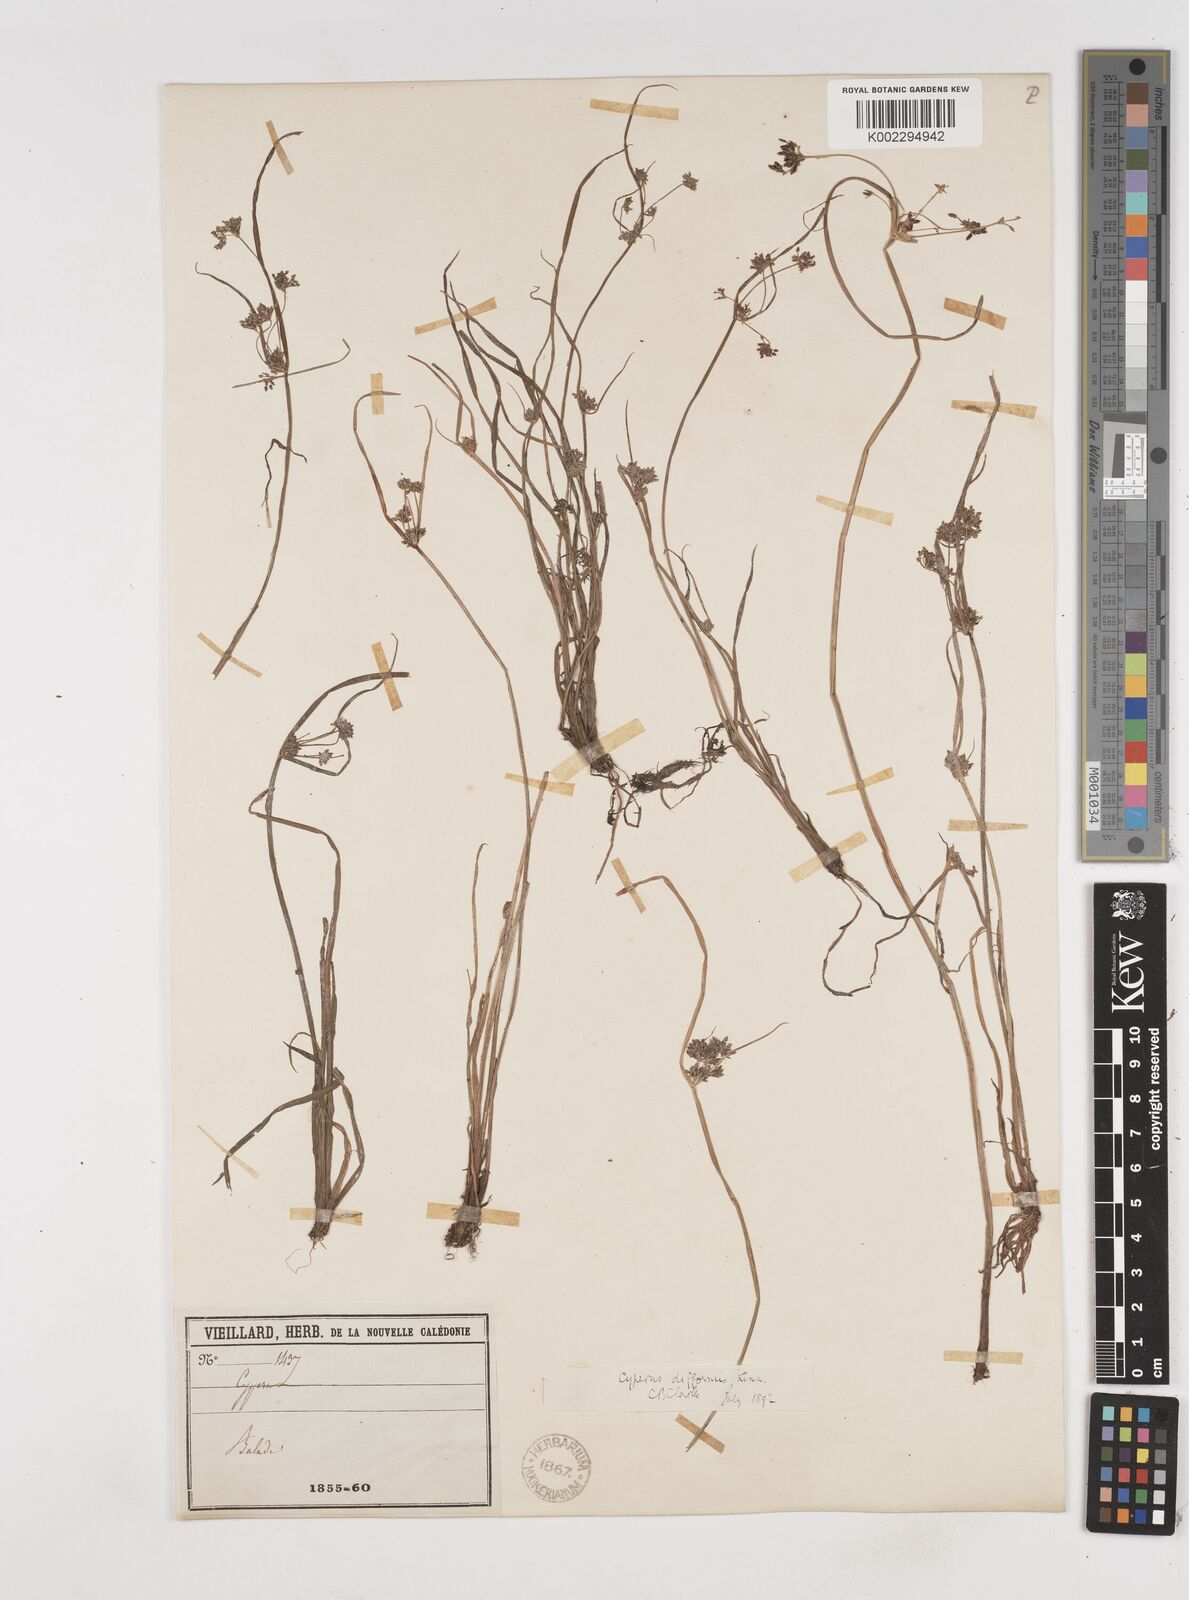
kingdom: Plantae
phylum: Tracheophyta
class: Liliopsida
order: Poales
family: Cyperaceae
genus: Cyperus
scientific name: Cyperus difformis
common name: Variable flatsedge
